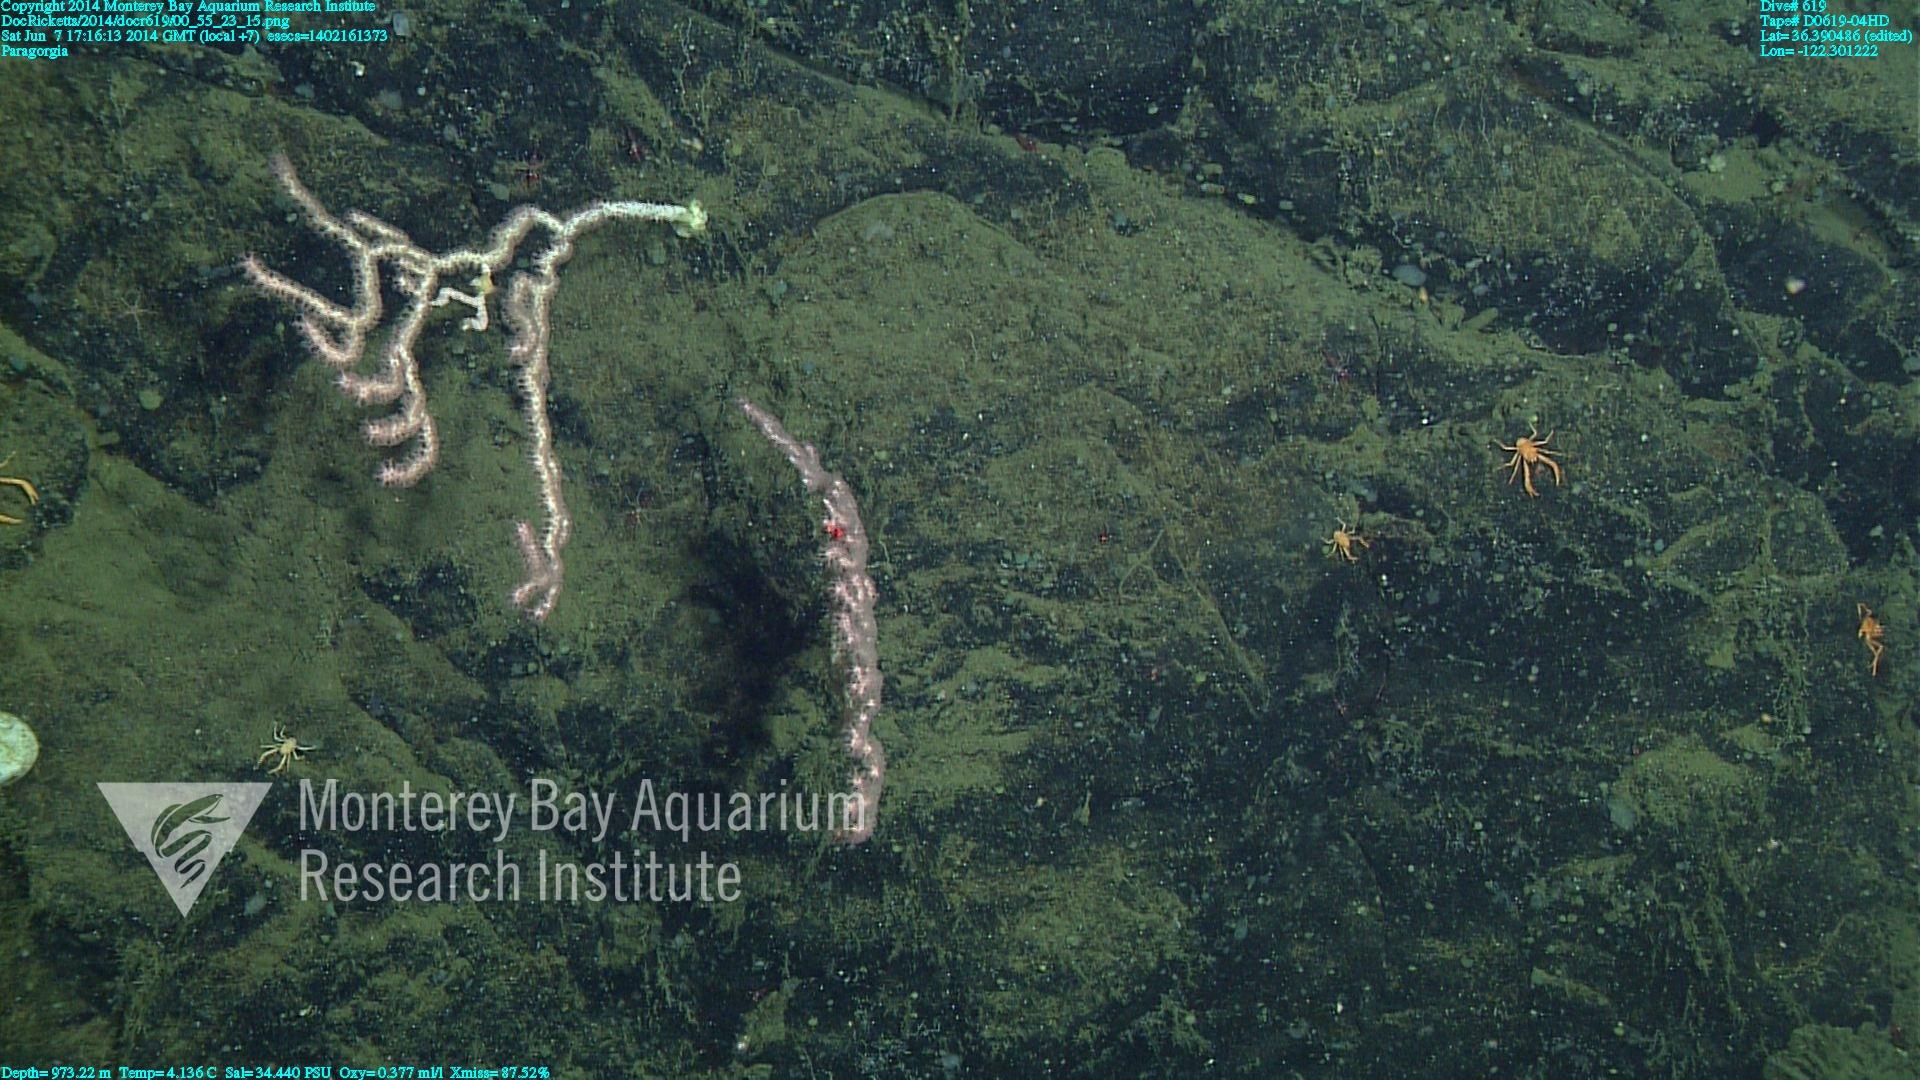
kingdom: Animalia
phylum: Cnidaria
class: Anthozoa
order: Scleralcyonacea
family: Coralliidae
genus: Paragorgia
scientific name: Paragorgia
